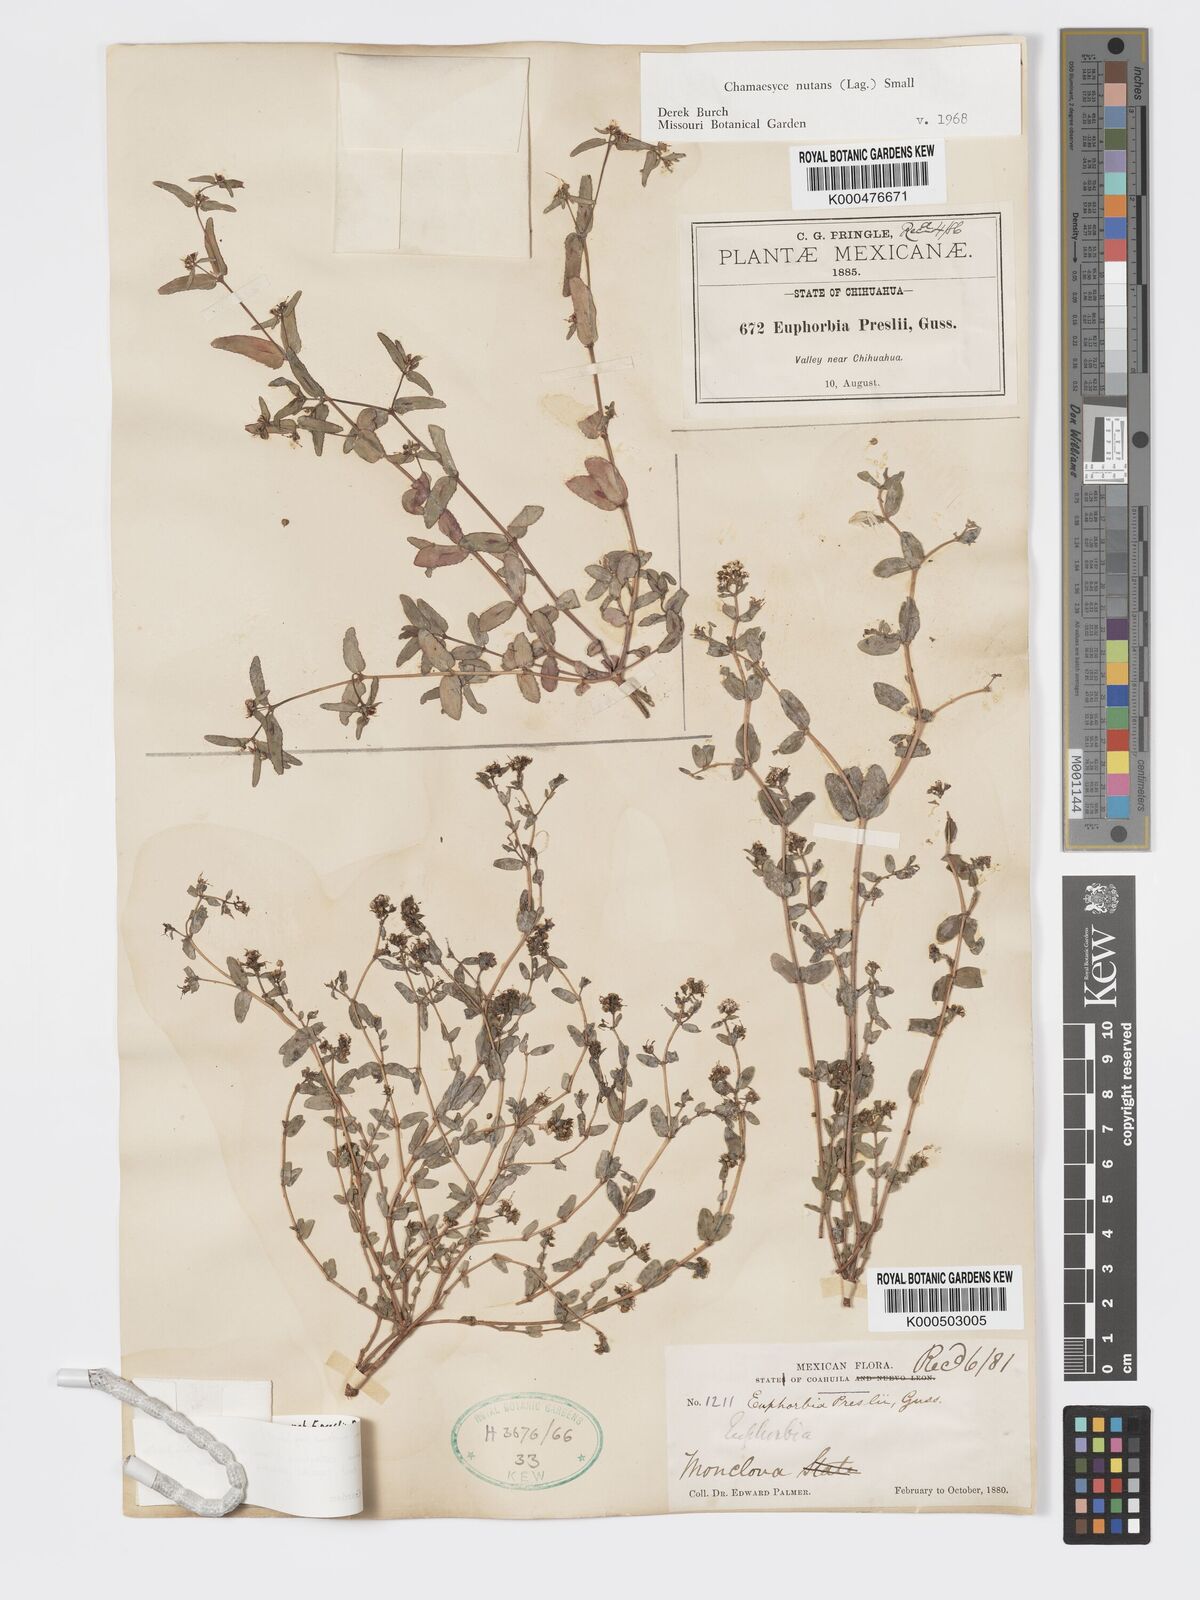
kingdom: Plantae
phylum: Tracheophyta
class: Magnoliopsida
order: Malpighiales
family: Euphorbiaceae
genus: Euphorbia
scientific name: Euphorbia nutans
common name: Eyebane
